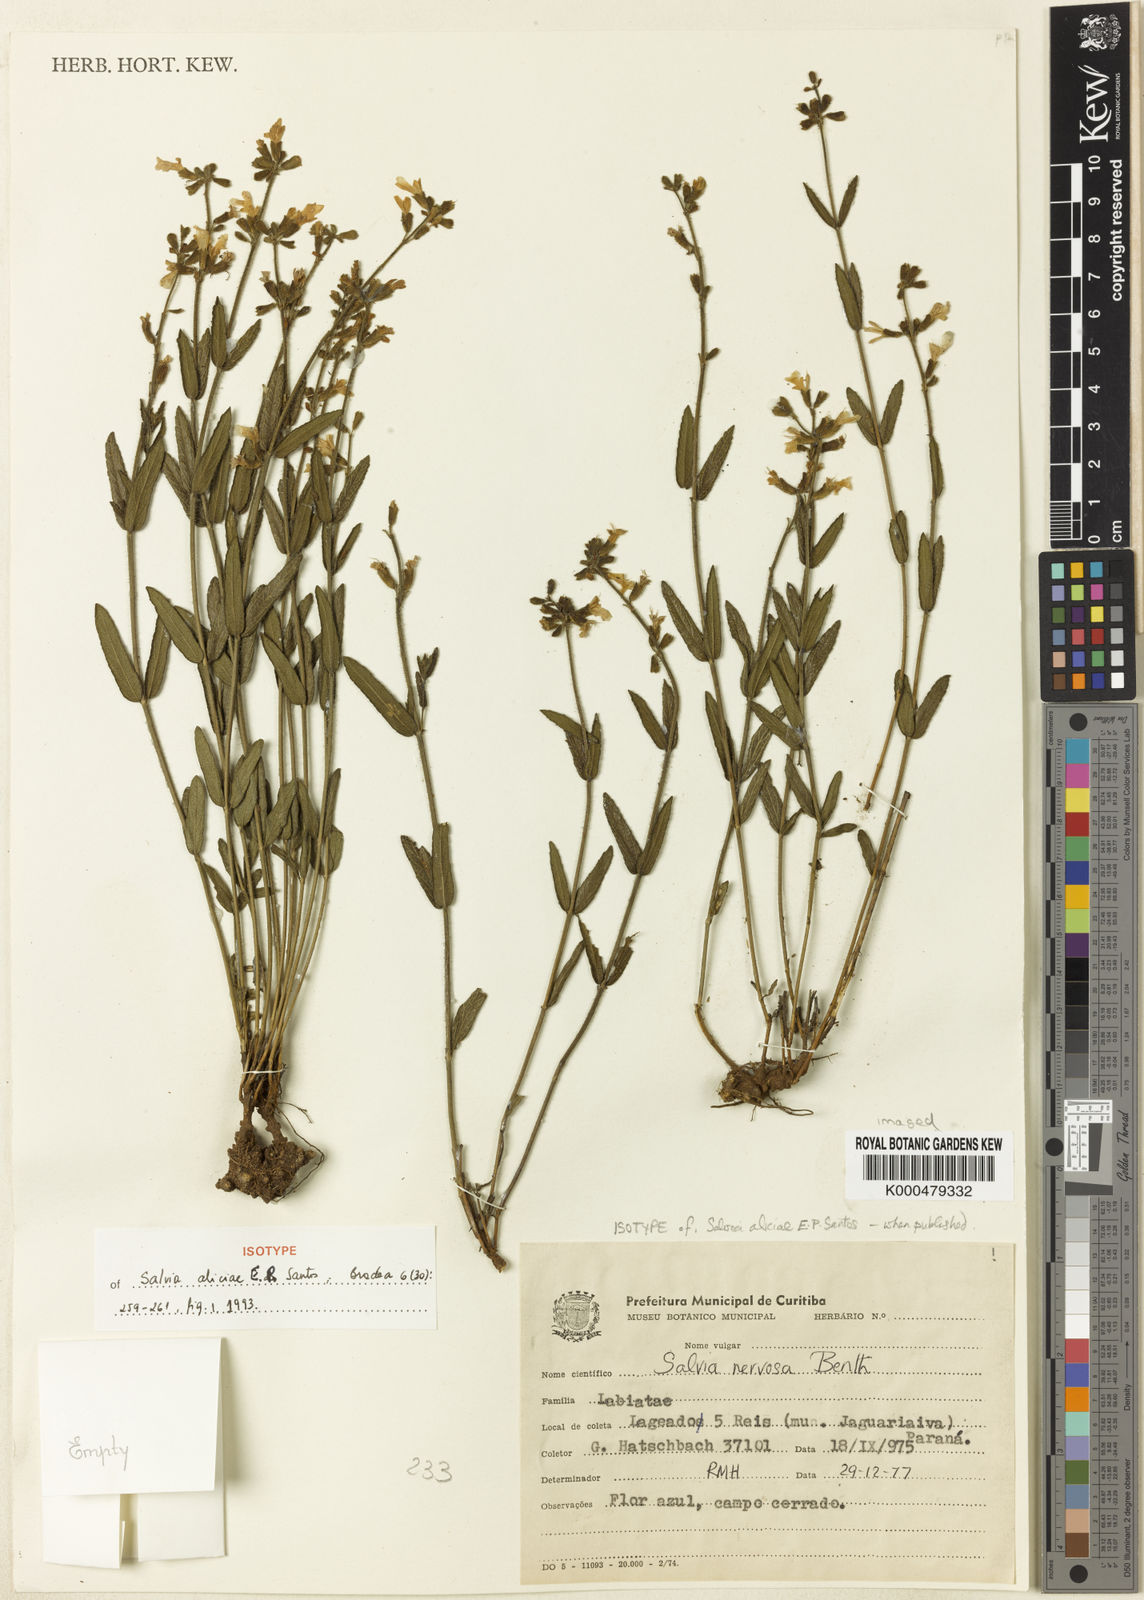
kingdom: Plantae
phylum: Tracheophyta
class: Magnoliopsida
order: Lamiales
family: Lamiaceae
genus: Salvia
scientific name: Salvia aliciae
